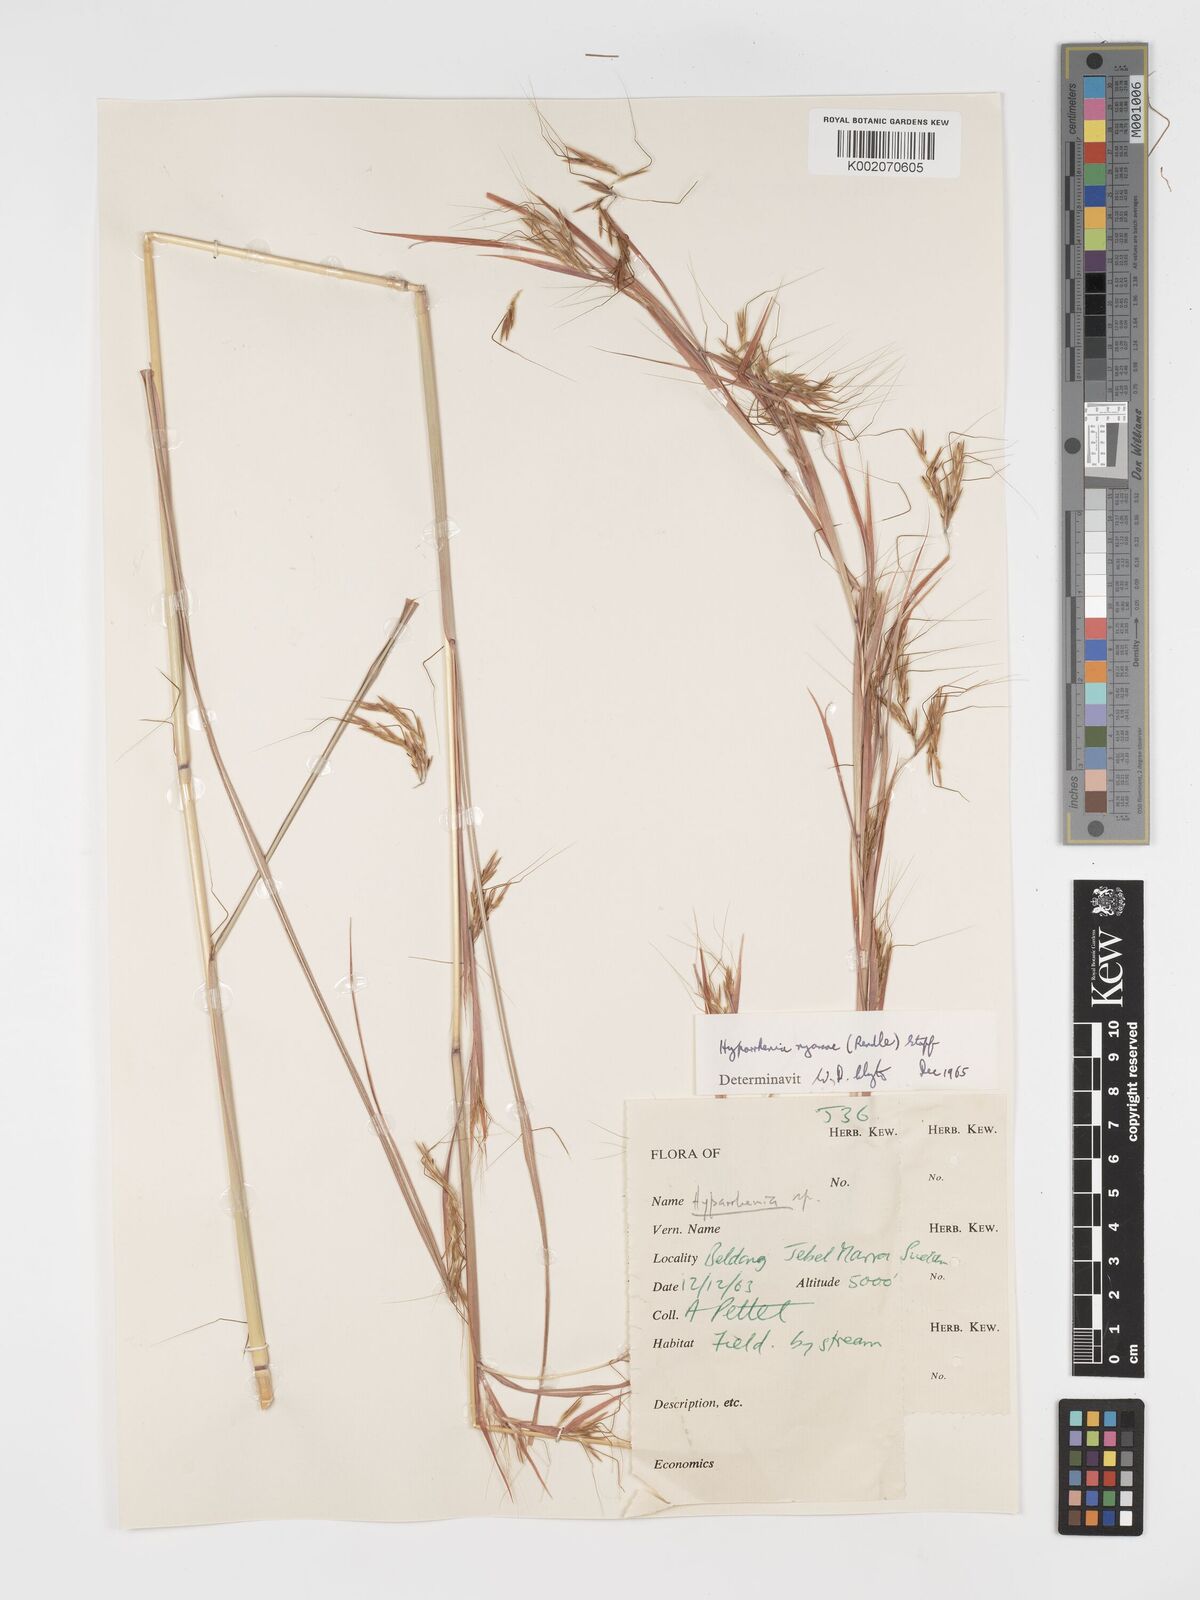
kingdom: Plantae
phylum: Tracheophyta
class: Liliopsida
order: Poales
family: Poaceae
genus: Hyparrhenia
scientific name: Hyparrhenia nyassae
